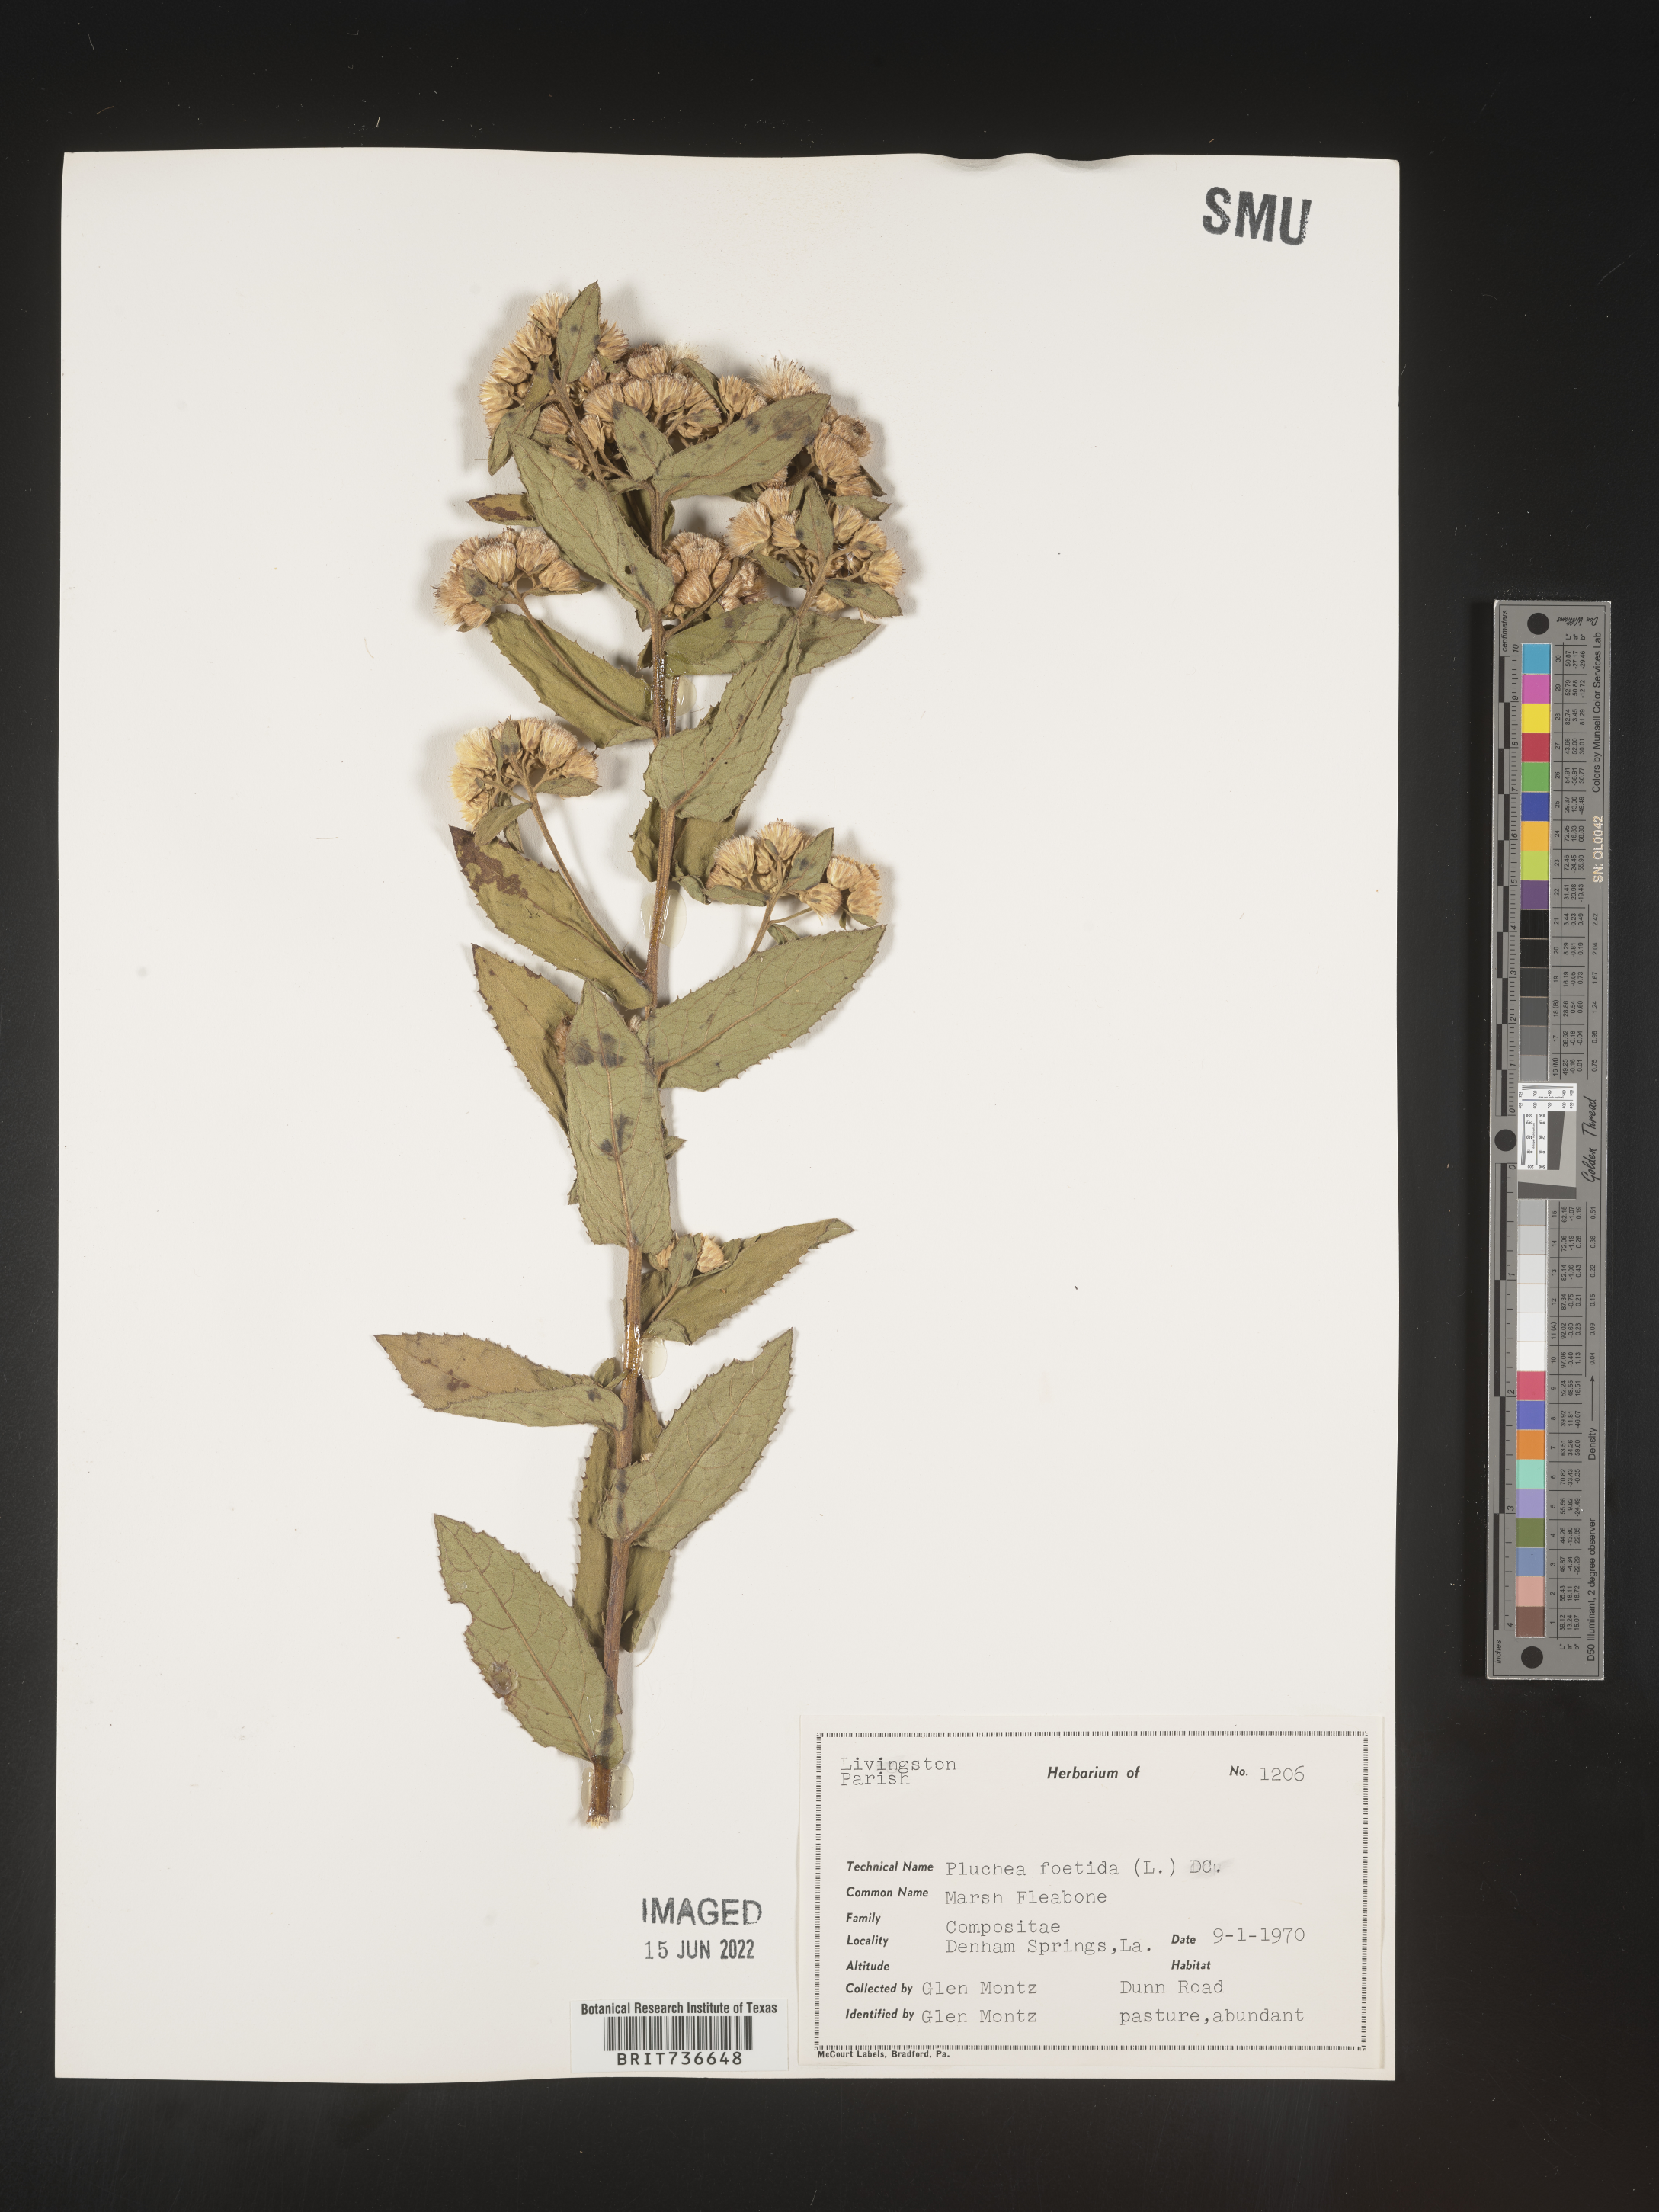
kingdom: Plantae
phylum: Tracheophyta
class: Magnoliopsida
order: Asterales
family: Asteraceae
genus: Pluchea
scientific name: Pluchea foetida
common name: Stinking camphorweed
